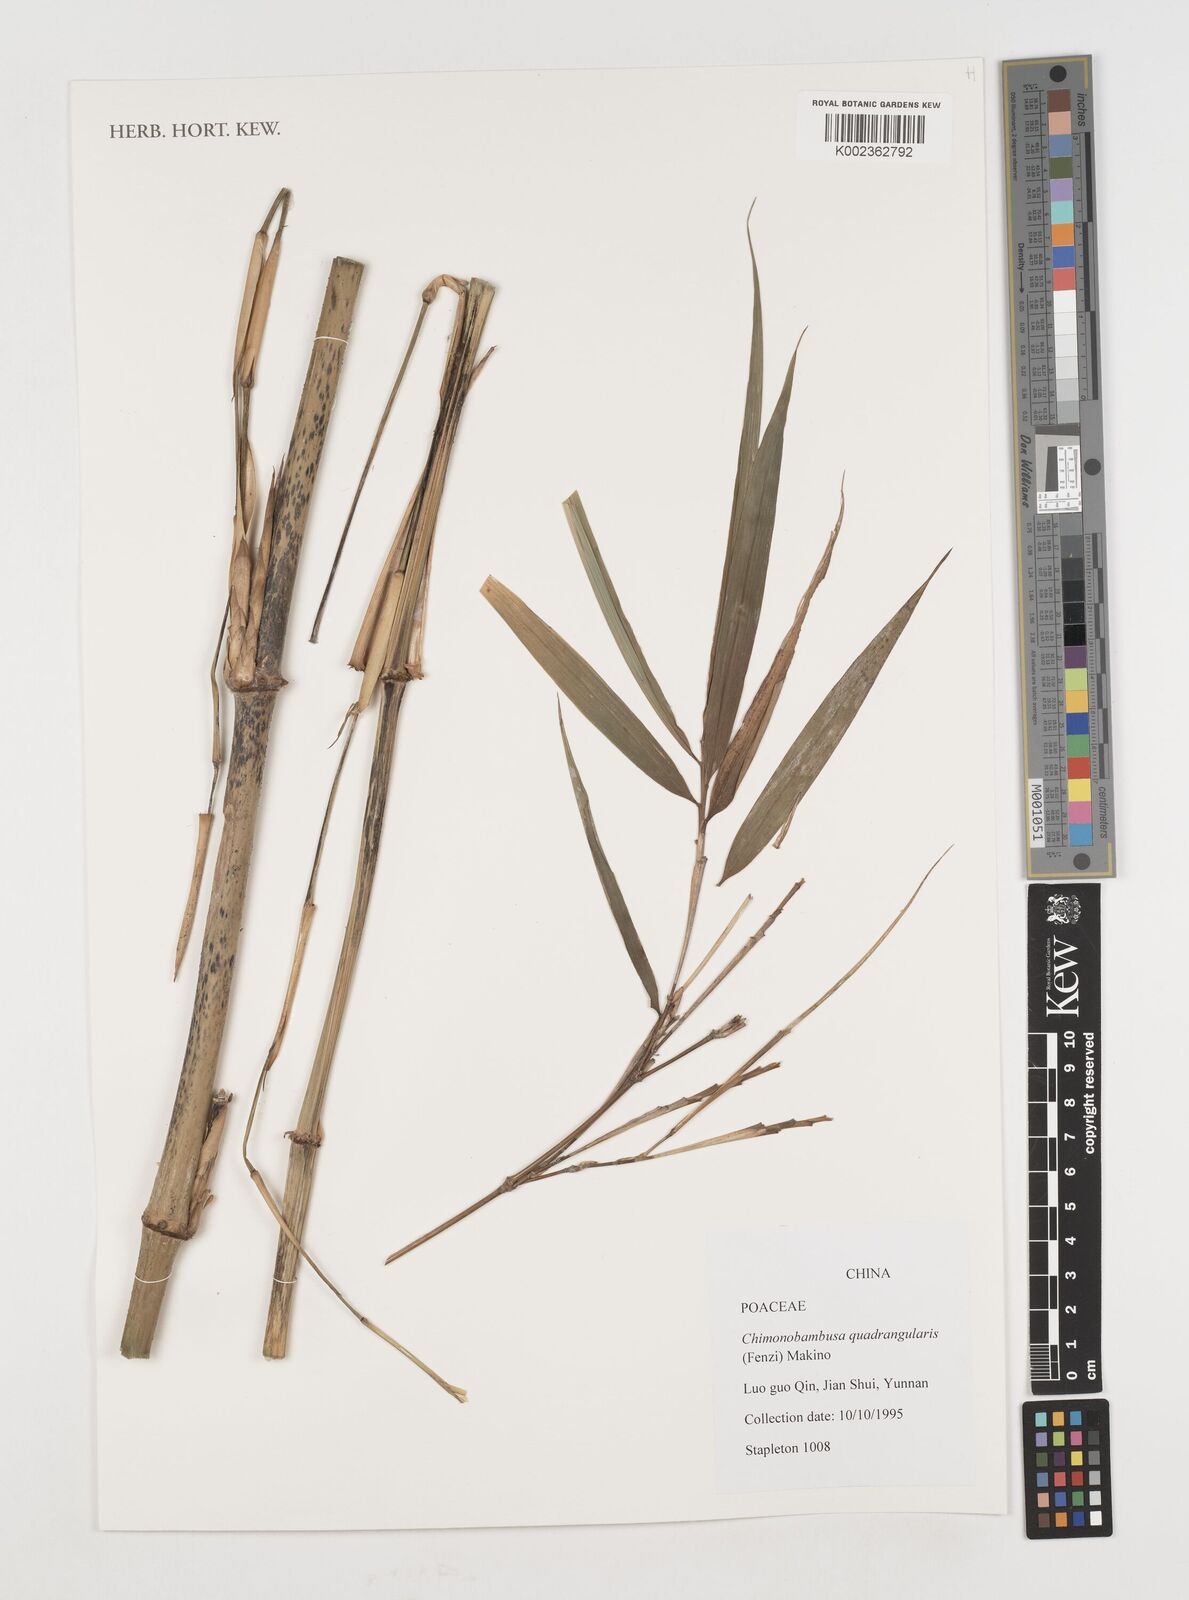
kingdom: Plantae
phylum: Tracheophyta
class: Liliopsida
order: Poales
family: Poaceae
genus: Chimonobambusa
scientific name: Chimonobambusa quadrangularis
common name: Square-stemmed bamboo
